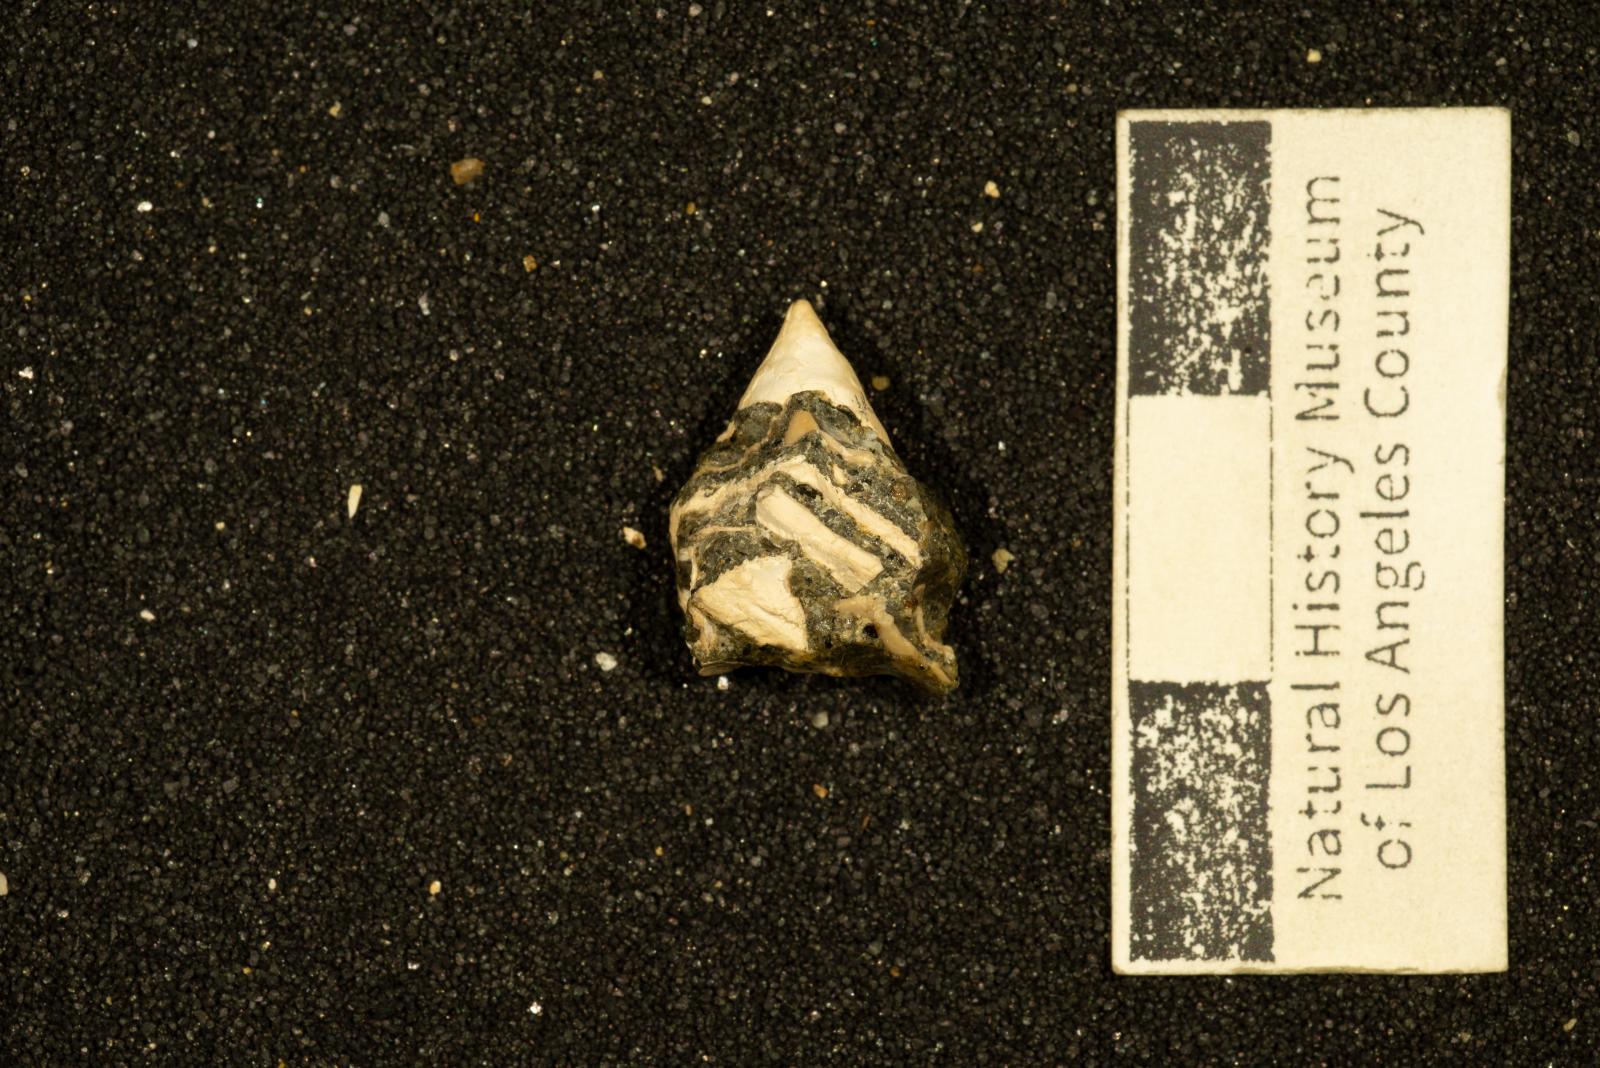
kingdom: Animalia
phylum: Mollusca
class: Gastropoda
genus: Vasculum
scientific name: Vasculum obliquum
